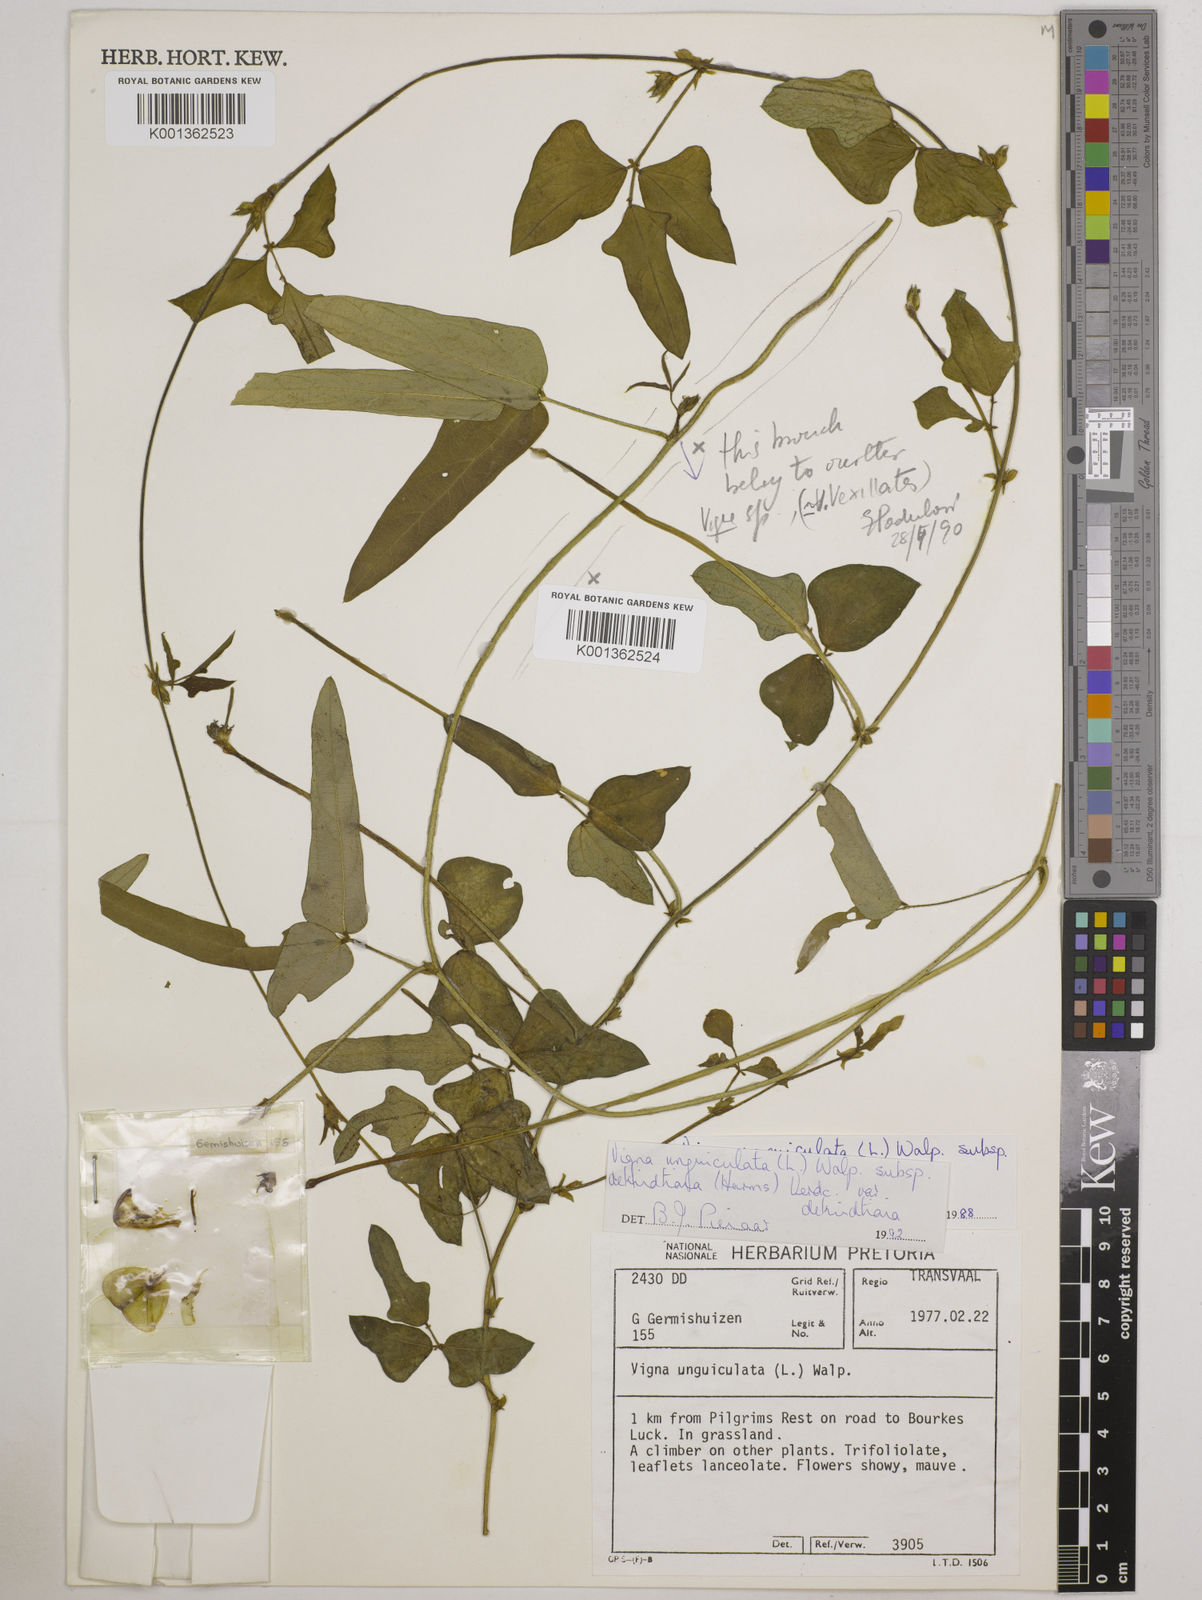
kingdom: Plantae
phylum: Tracheophyta
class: Magnoliopsida
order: Fabales
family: Fabaceae
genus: Vigna
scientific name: Vigna unguiculata
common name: Cowpea
